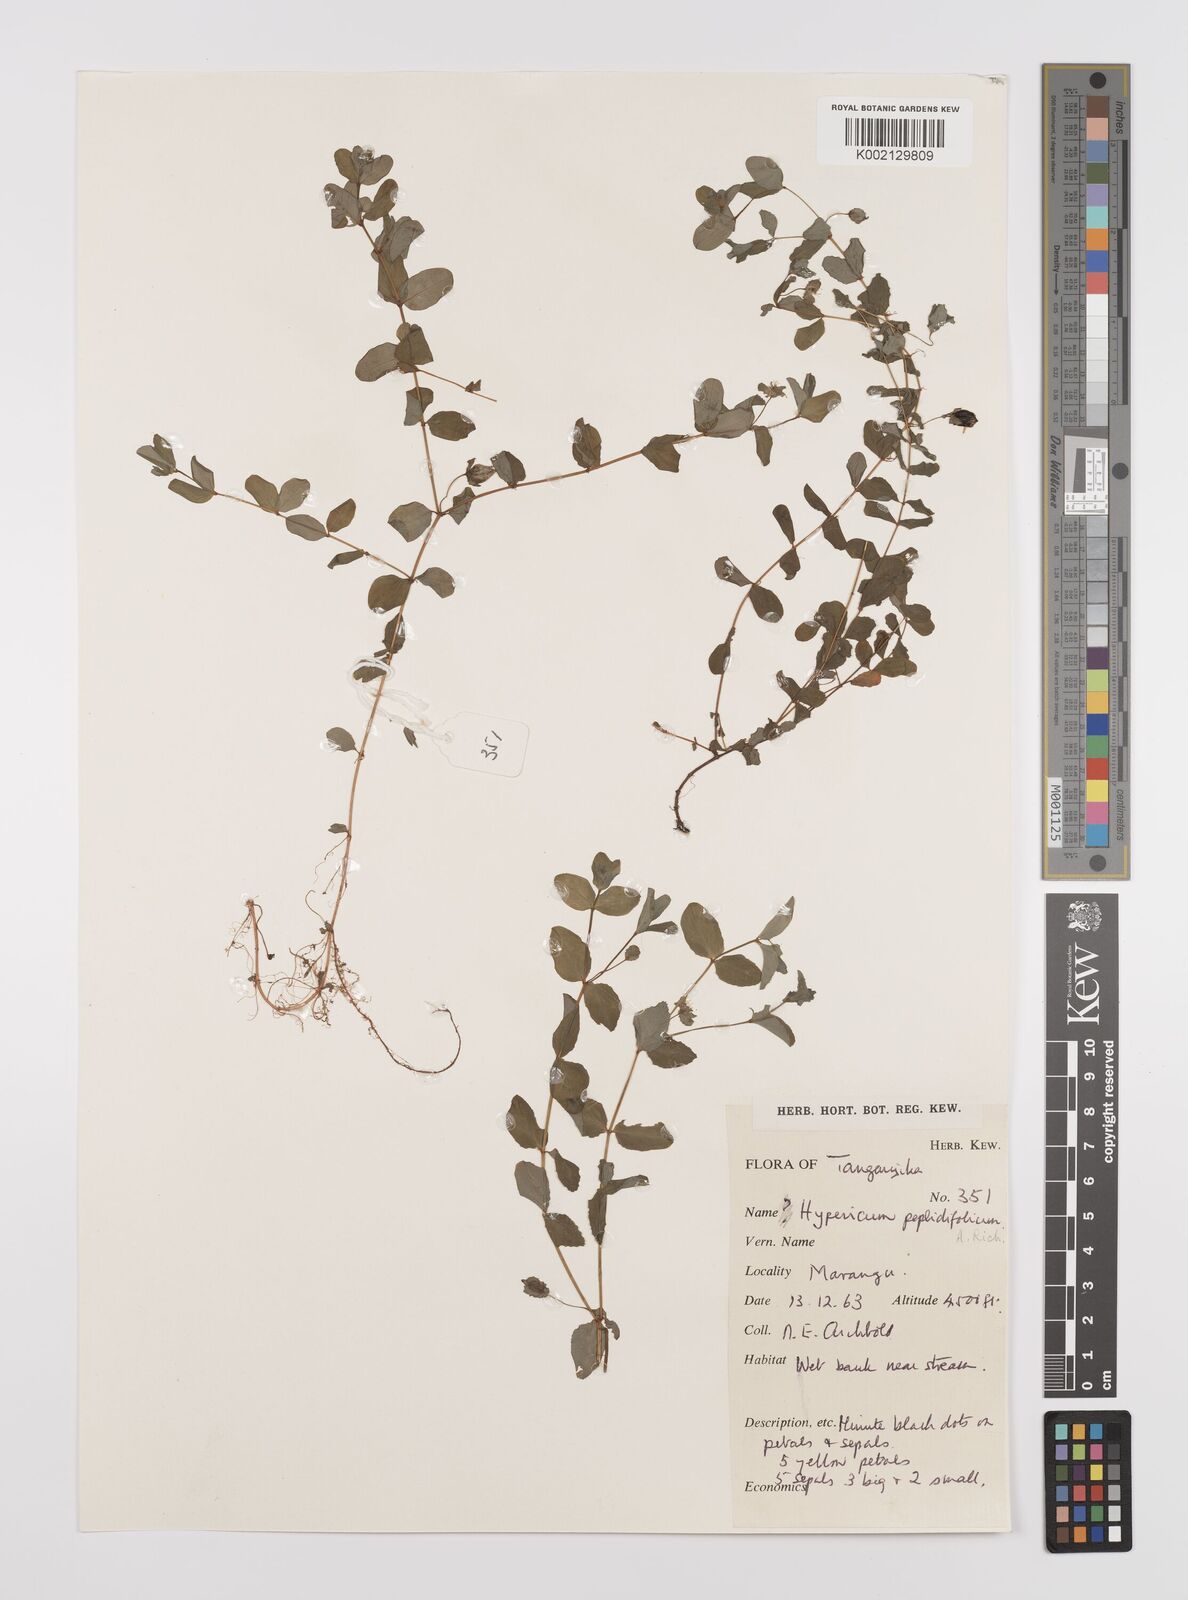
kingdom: Plantae
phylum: Tracheophyta
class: Magnoliopsida
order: Malpighiales
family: Hypericaceae
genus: Hypericum
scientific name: Hypericum peplidifolium
